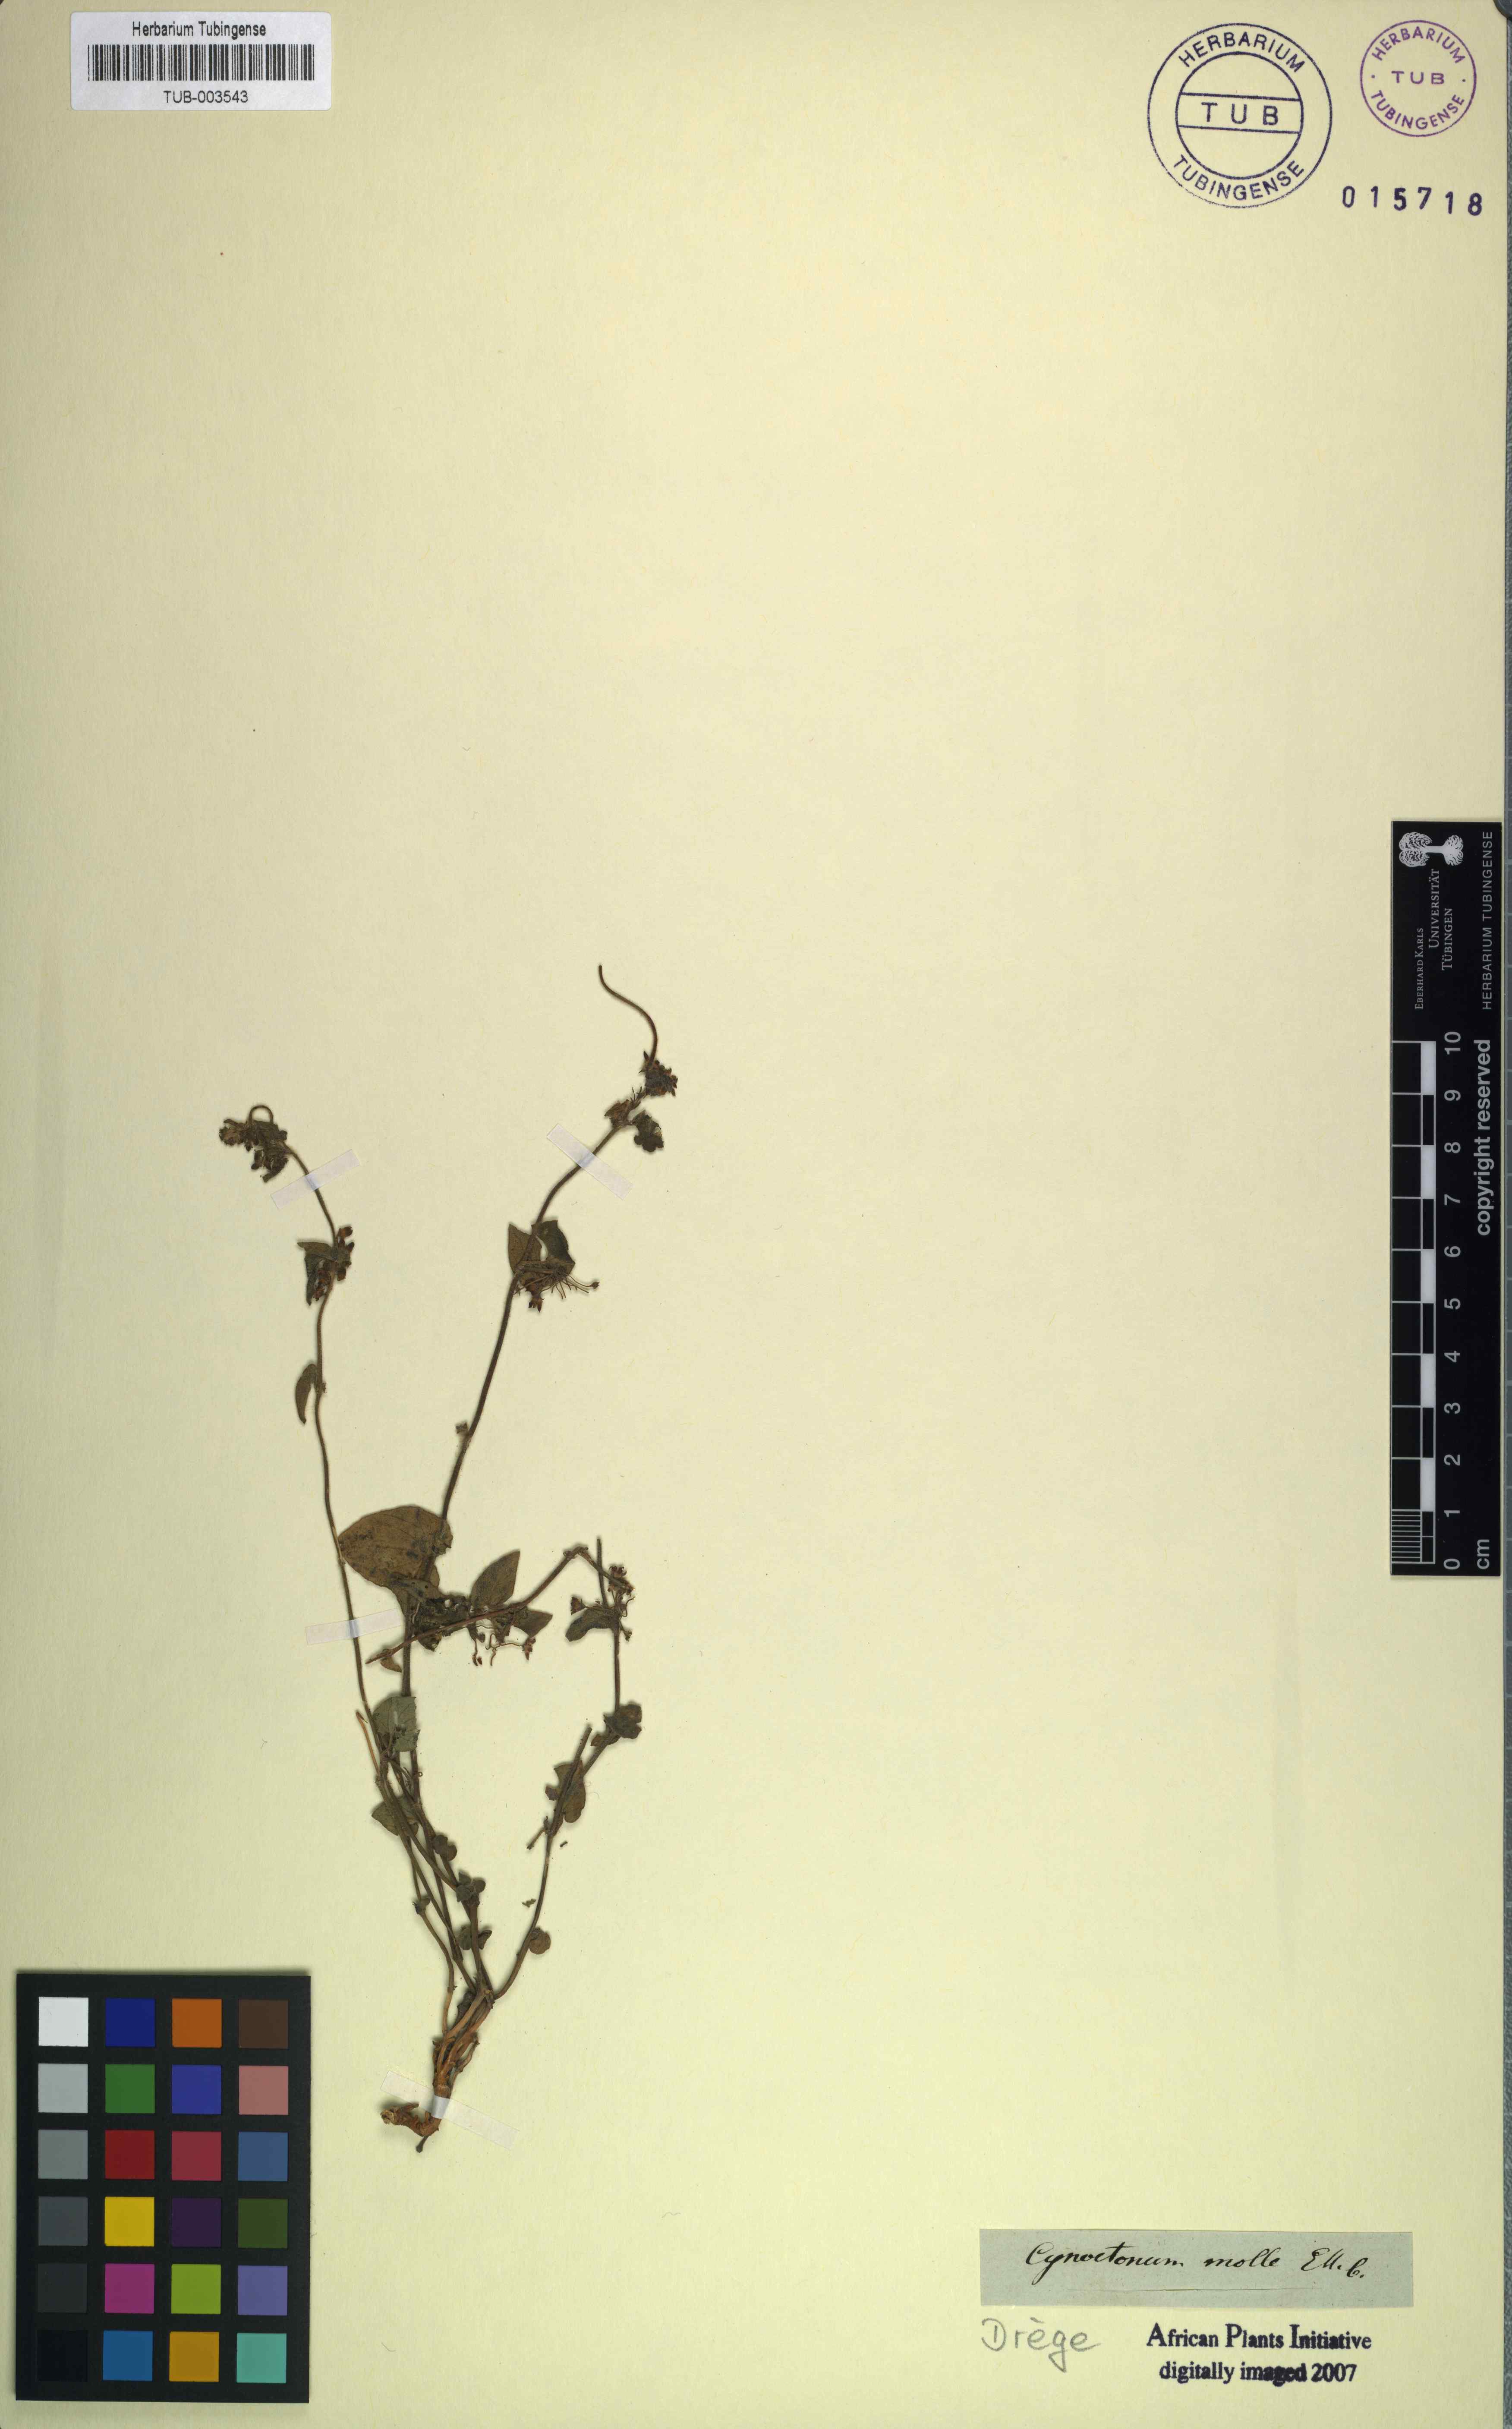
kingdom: Plantae
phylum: Tracheophyta
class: Magnoliopsida
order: Gentianales
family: Apocynaceae
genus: Cynanchum
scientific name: Cynanchum molle
